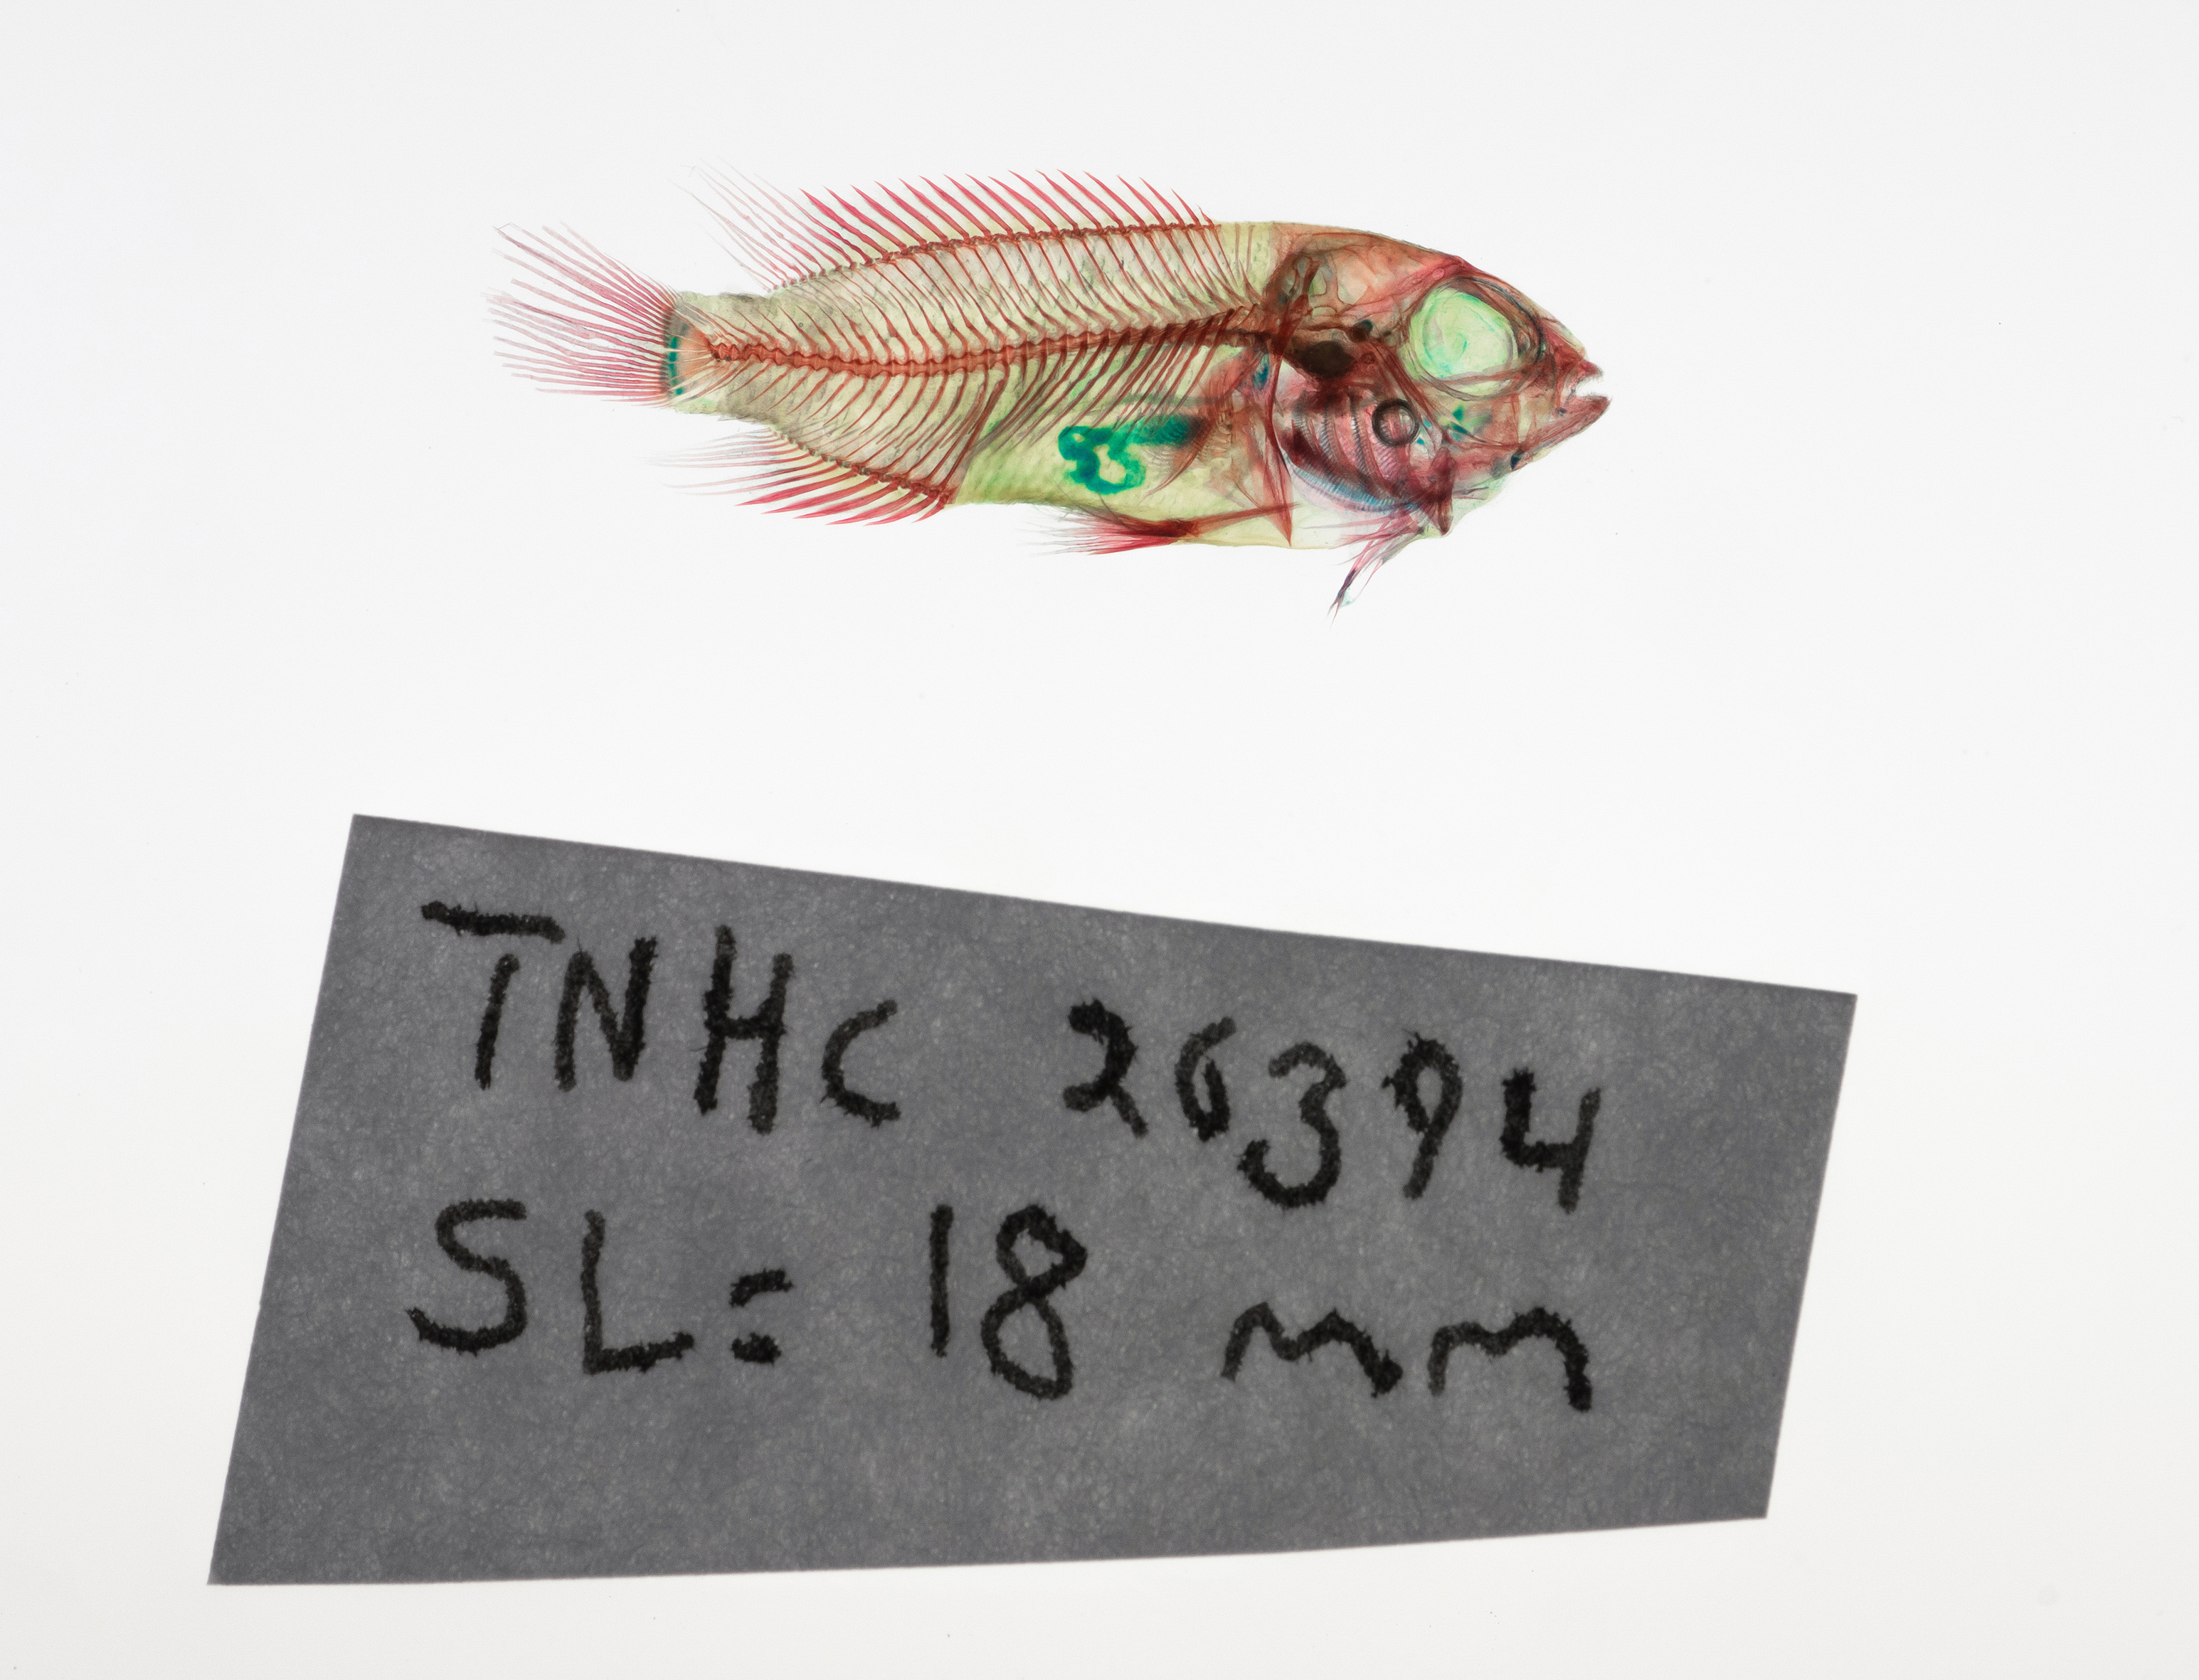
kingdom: Animalia
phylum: Chordata
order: Perciformes
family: Cichlidae
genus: Chiapaheros
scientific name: Chiapaheros grammodes
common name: Chiapa de corzo cichlid
